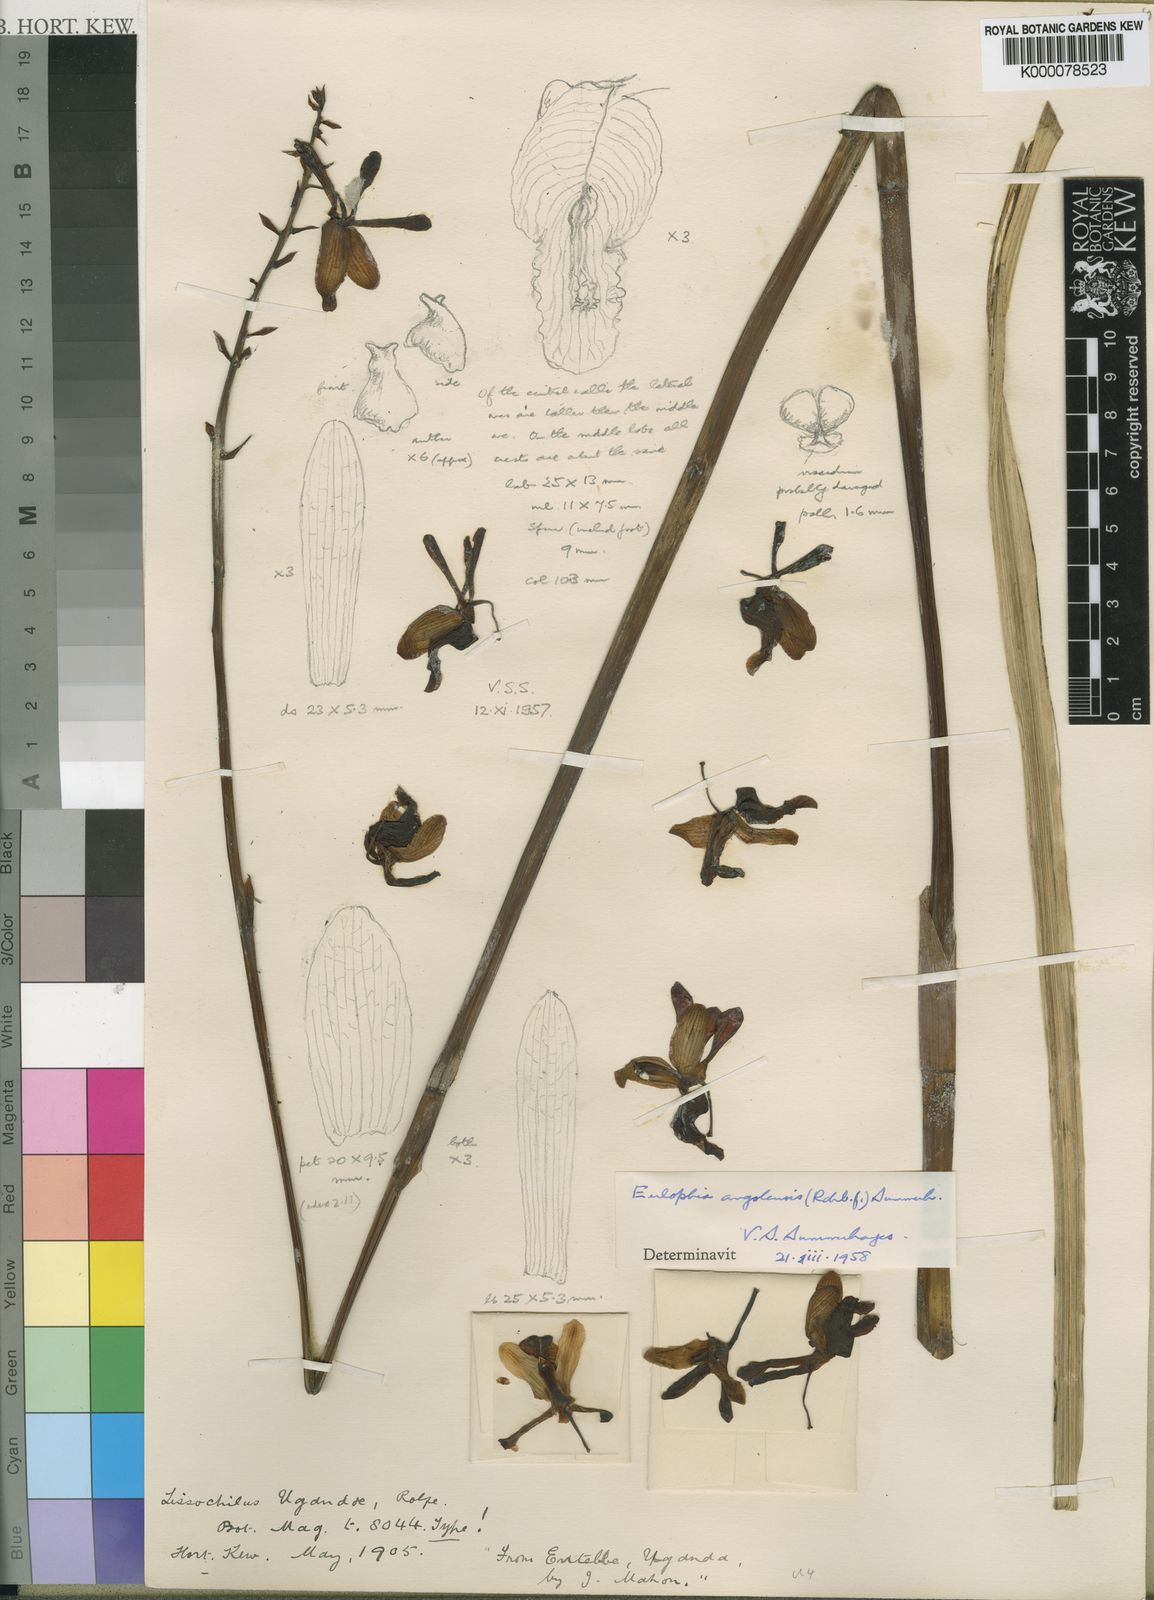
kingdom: Plantae
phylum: Tracheophyta
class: Liliopsida
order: Asparagales
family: Orchidaceae
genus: Eulophia
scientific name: Eulophia angolensis
